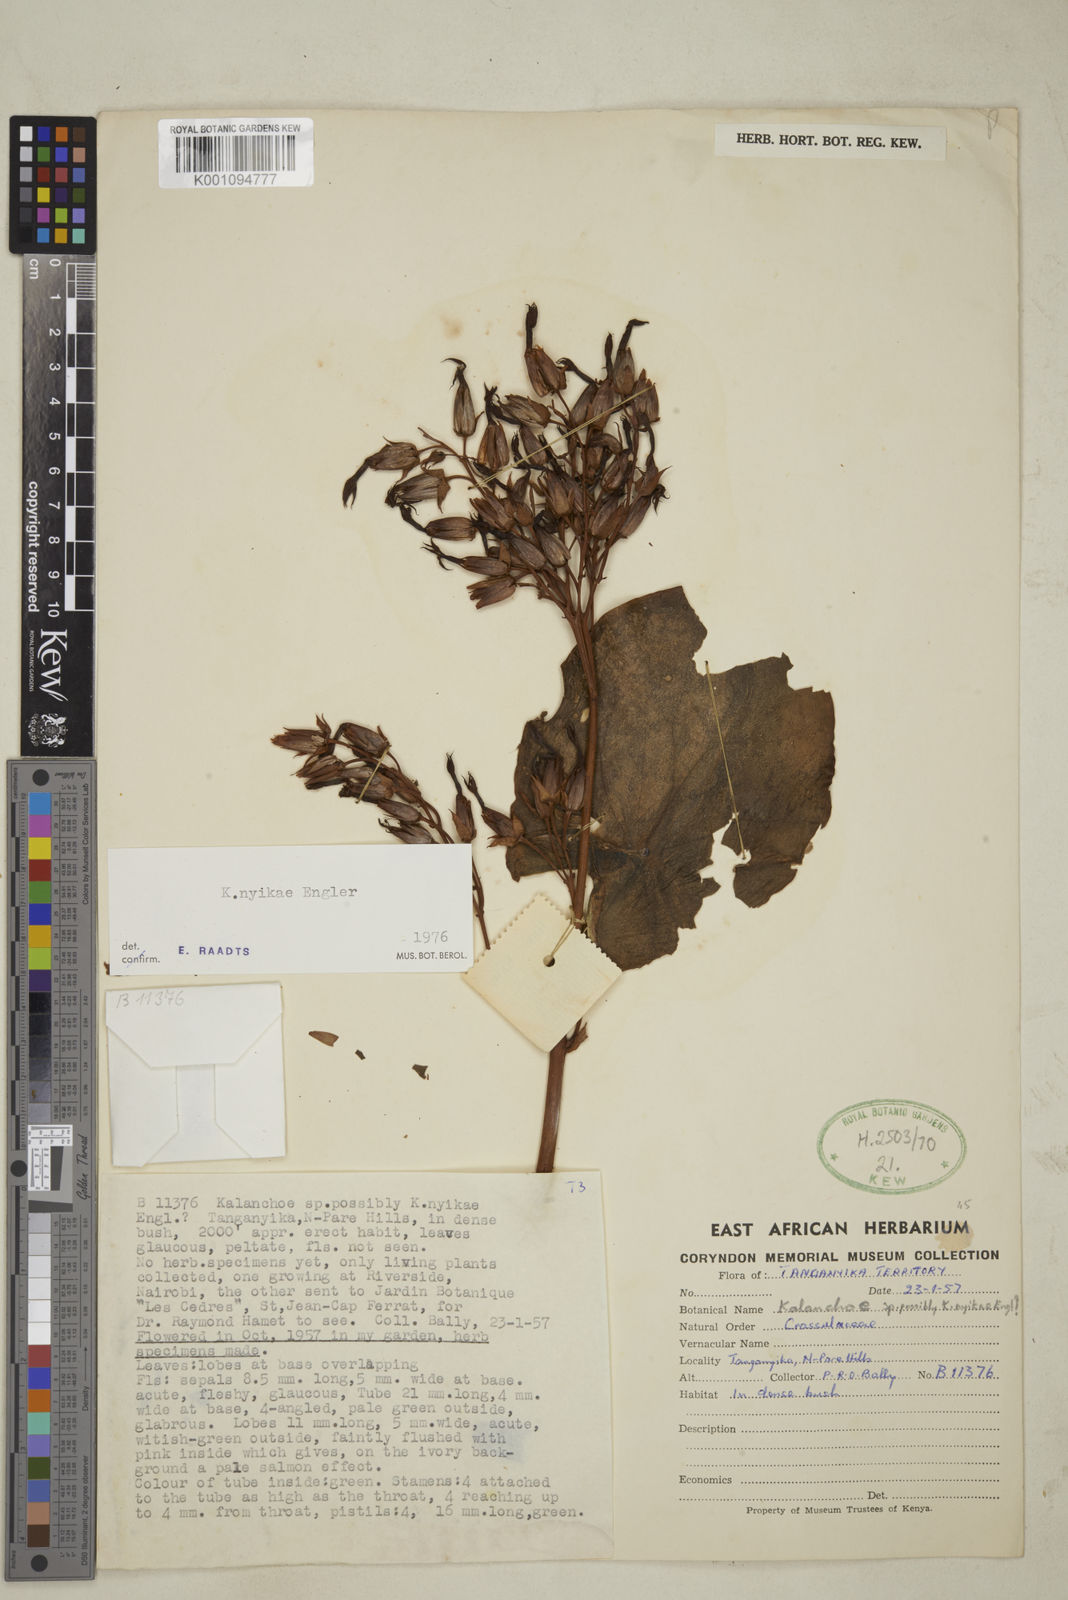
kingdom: Plantae
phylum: Tracheophyta
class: Magnoliopsida
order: Saxifragales
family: Crassulaceae
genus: Kalanchoe
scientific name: Kalanchoe nyikae
